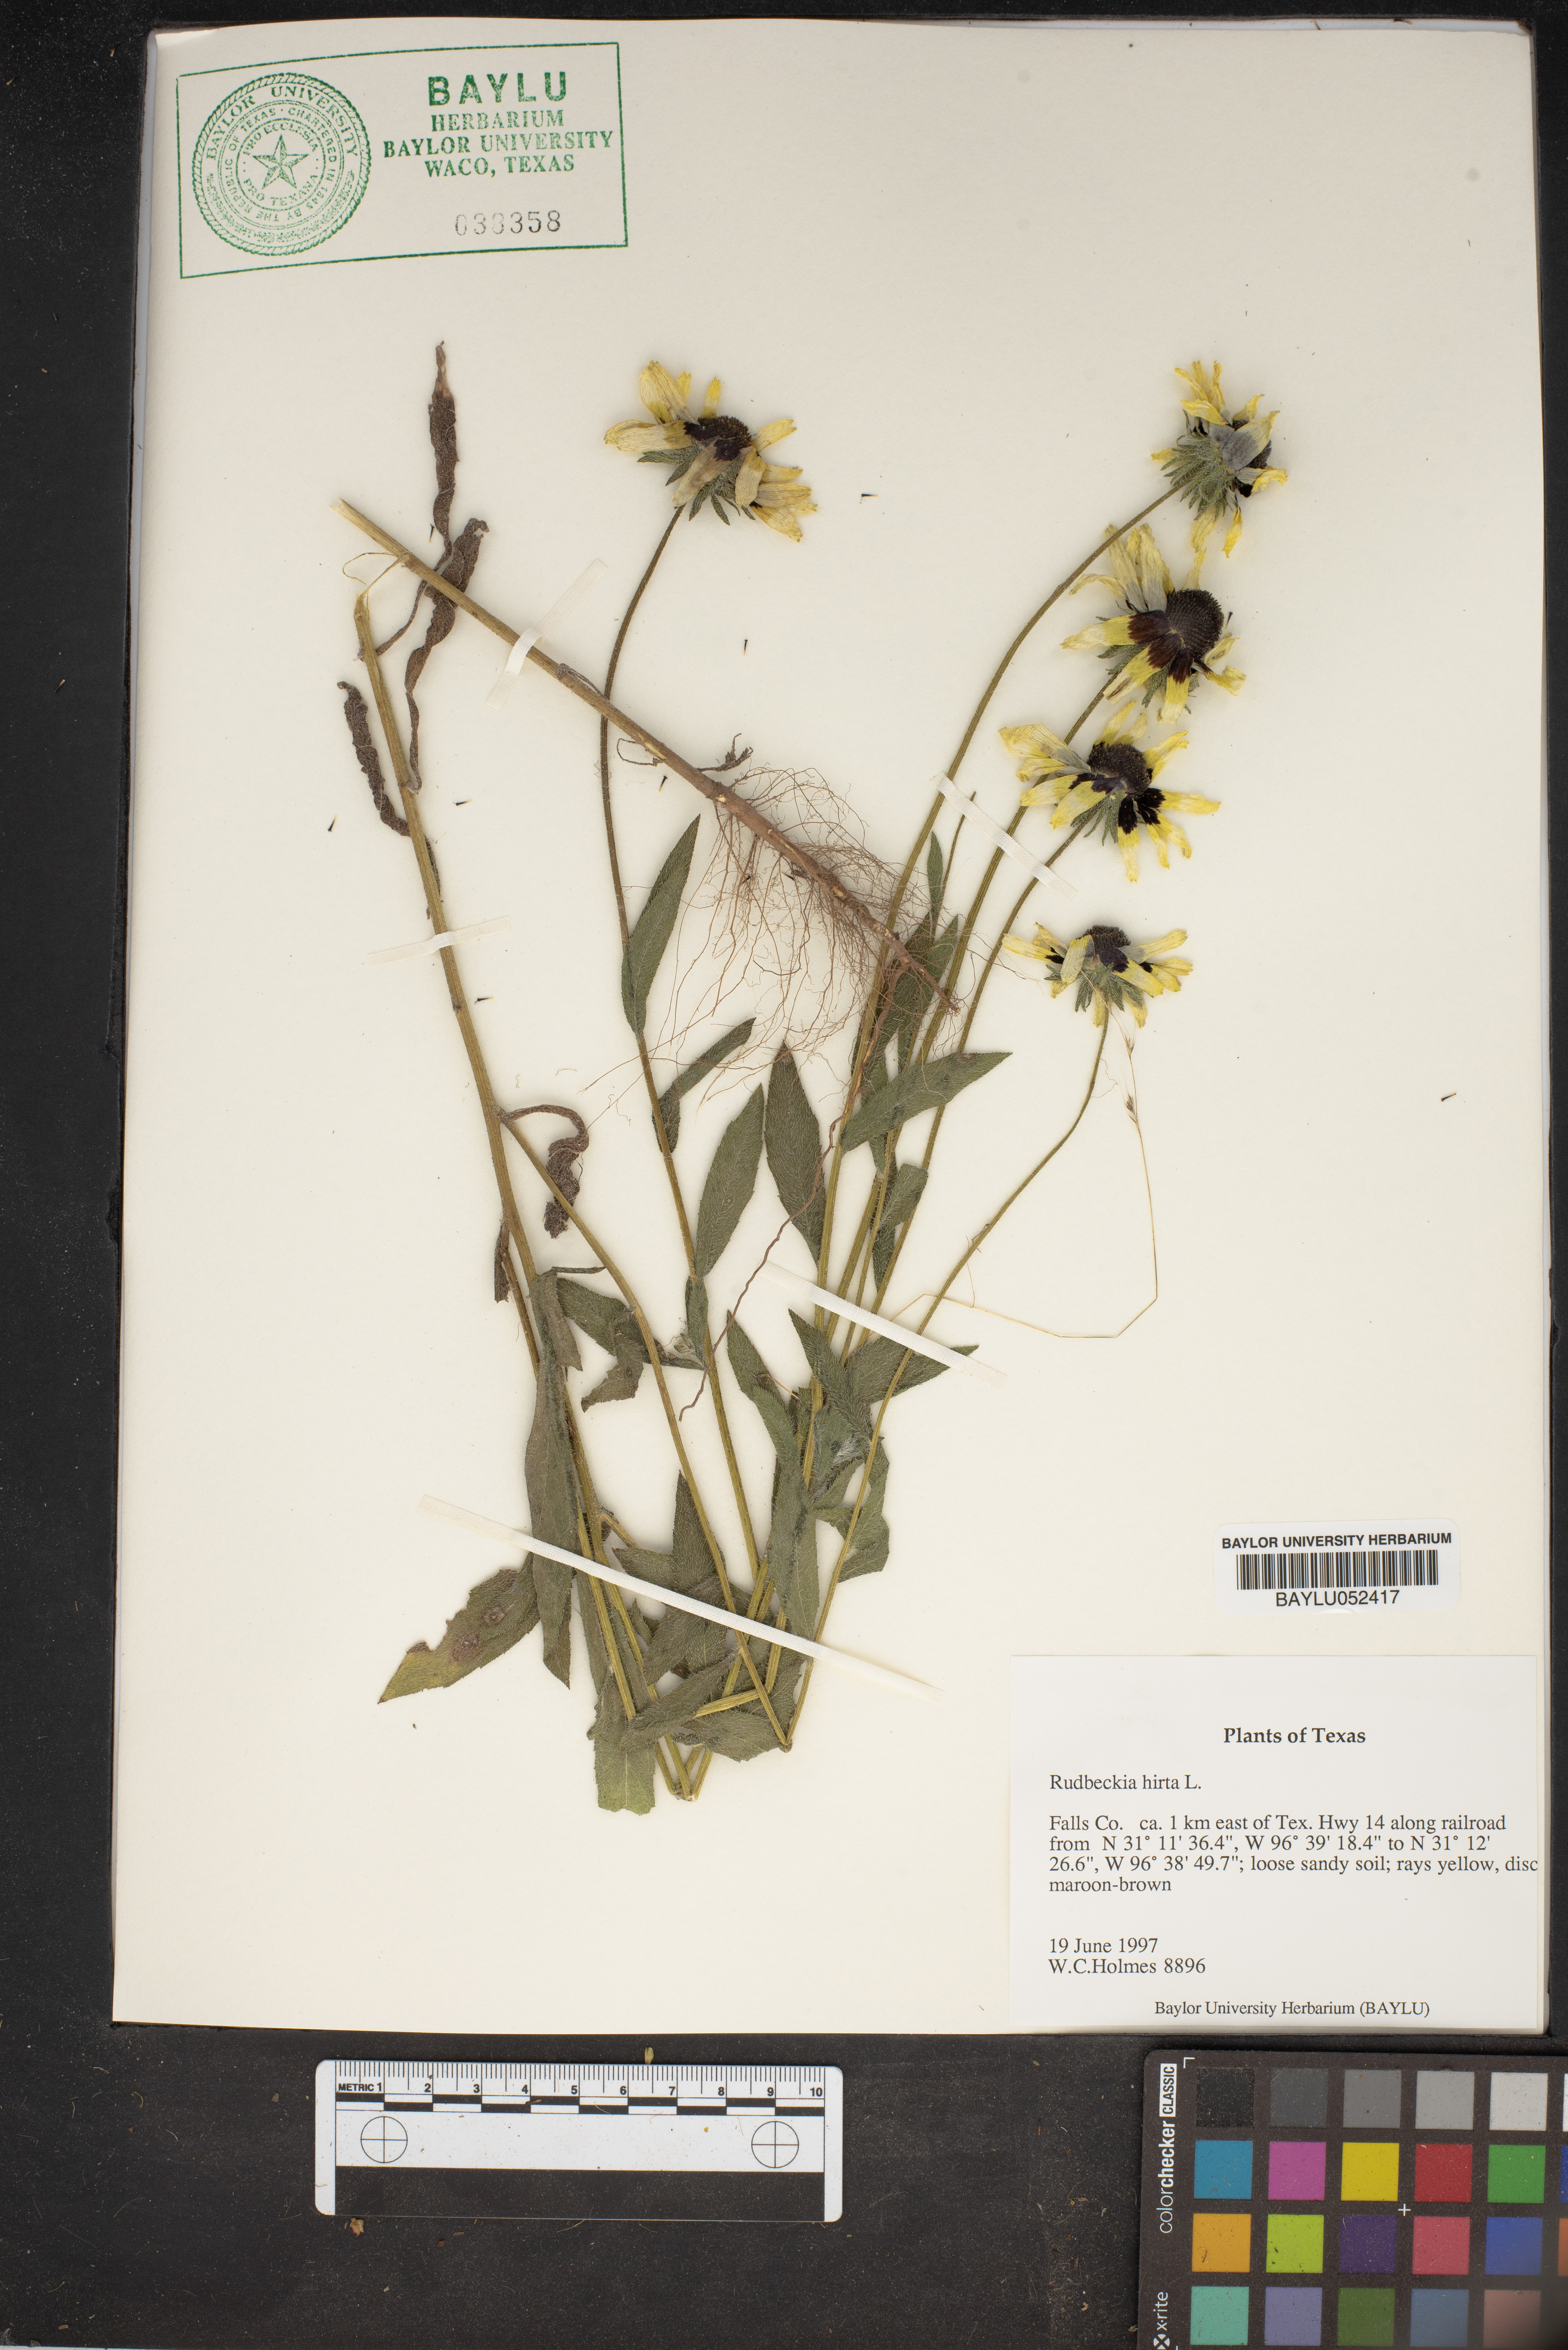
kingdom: Plantae
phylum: Tracheophyta
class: Magnoliopsida
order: Asterales
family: Asteraceae
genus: Rudbeckia
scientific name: Rudbeckia hirta
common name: Black-eyed-susan
